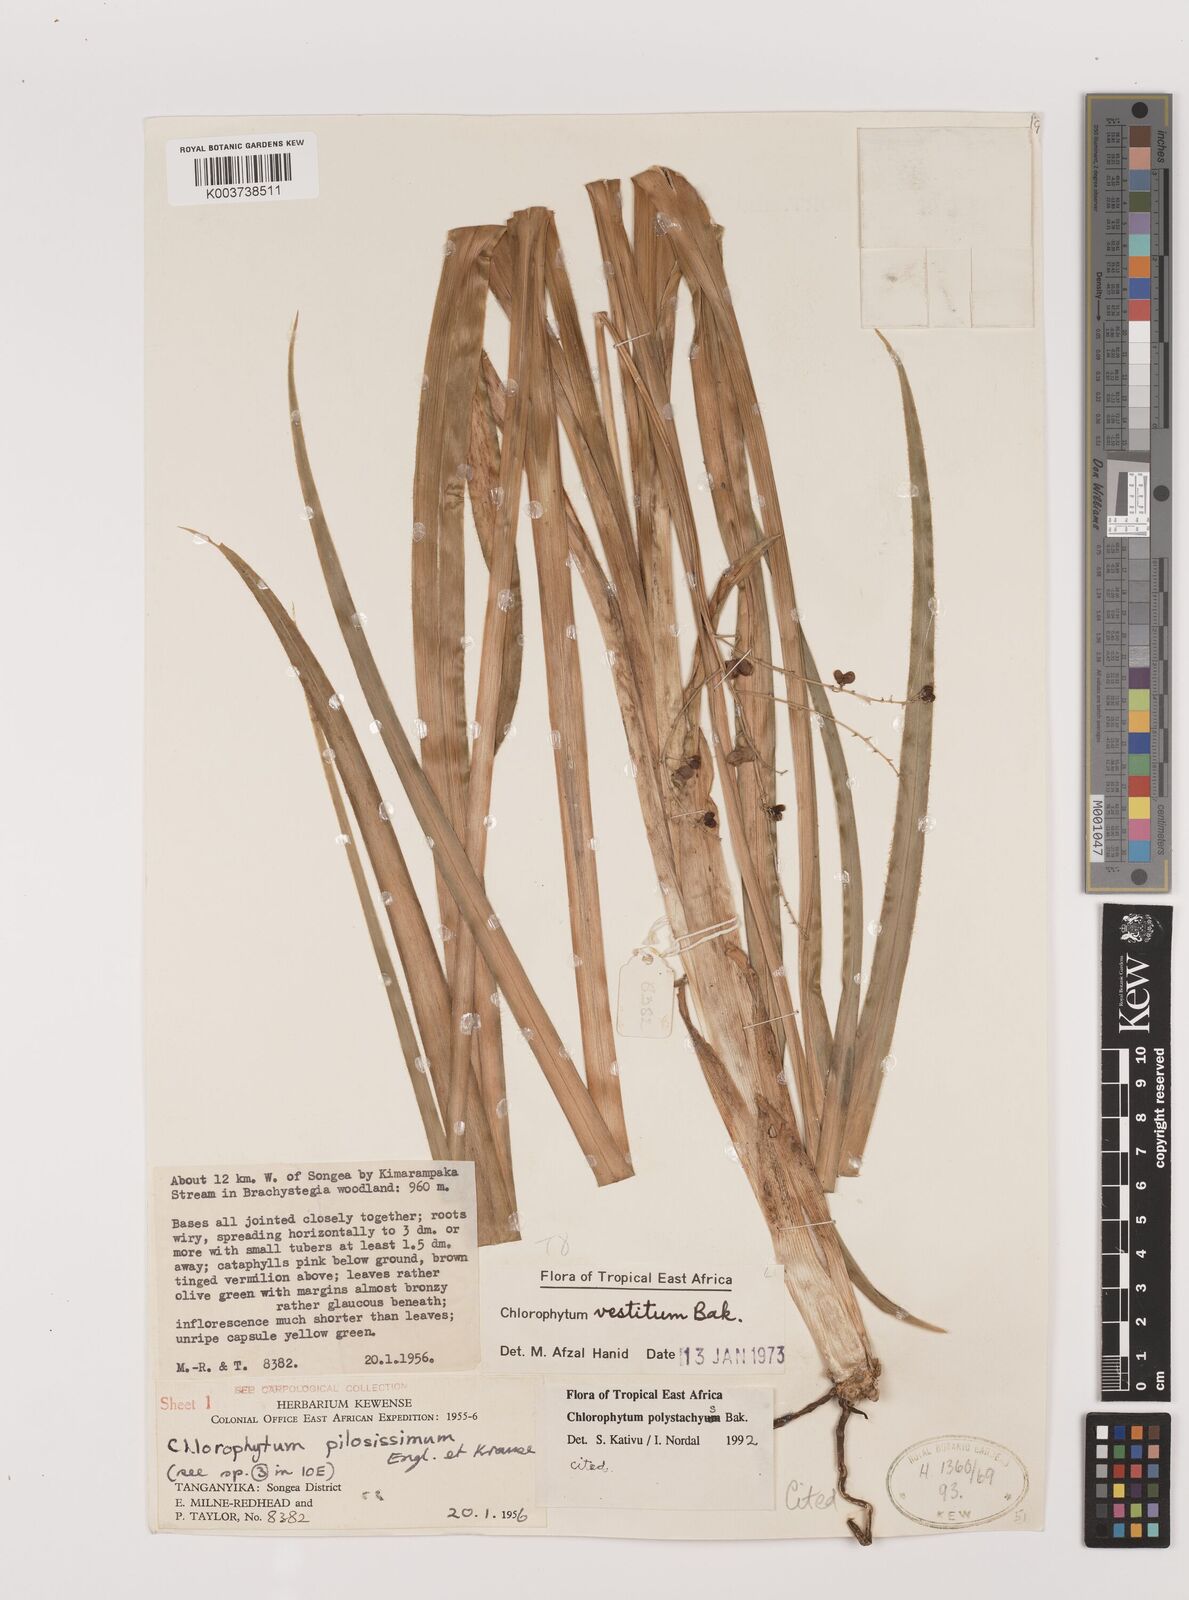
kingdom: Plantae
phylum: Tracheophyta
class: Liliopsida
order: Asparagales
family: Asparagaceae
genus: Chlorophytum
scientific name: Chlorophytum polystachys
